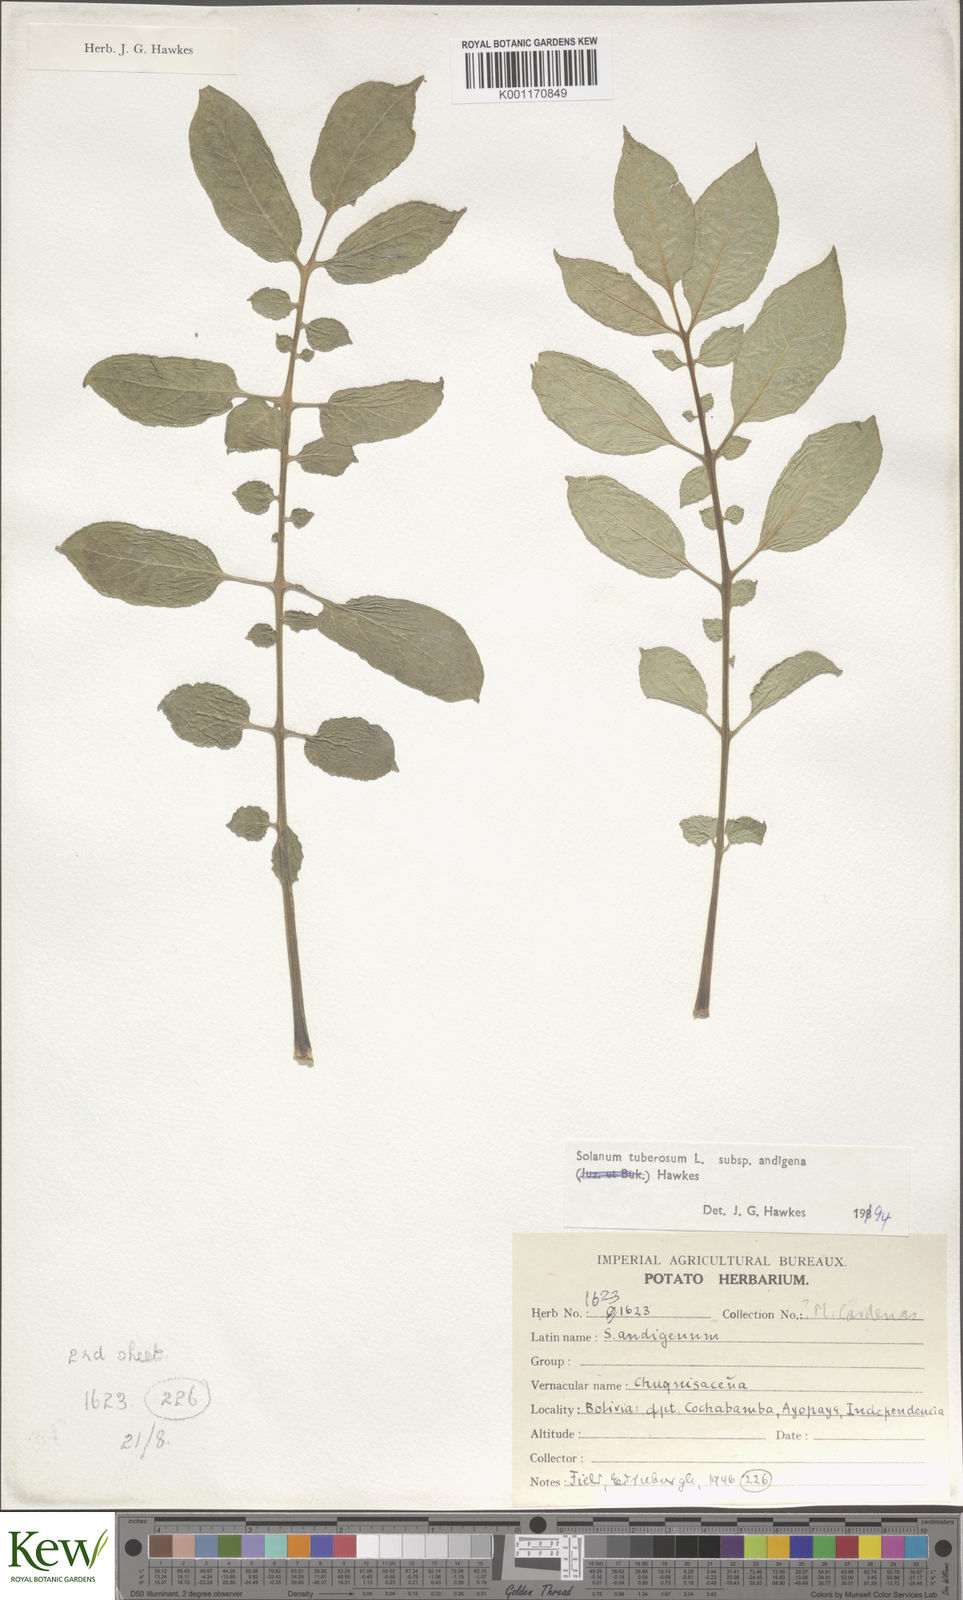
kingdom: Plantae
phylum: Tracheophyta
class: Magnoliopsida
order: Solanales
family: Solanaceae
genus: Solanum
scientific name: Solanum tuberosum
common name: Potato
